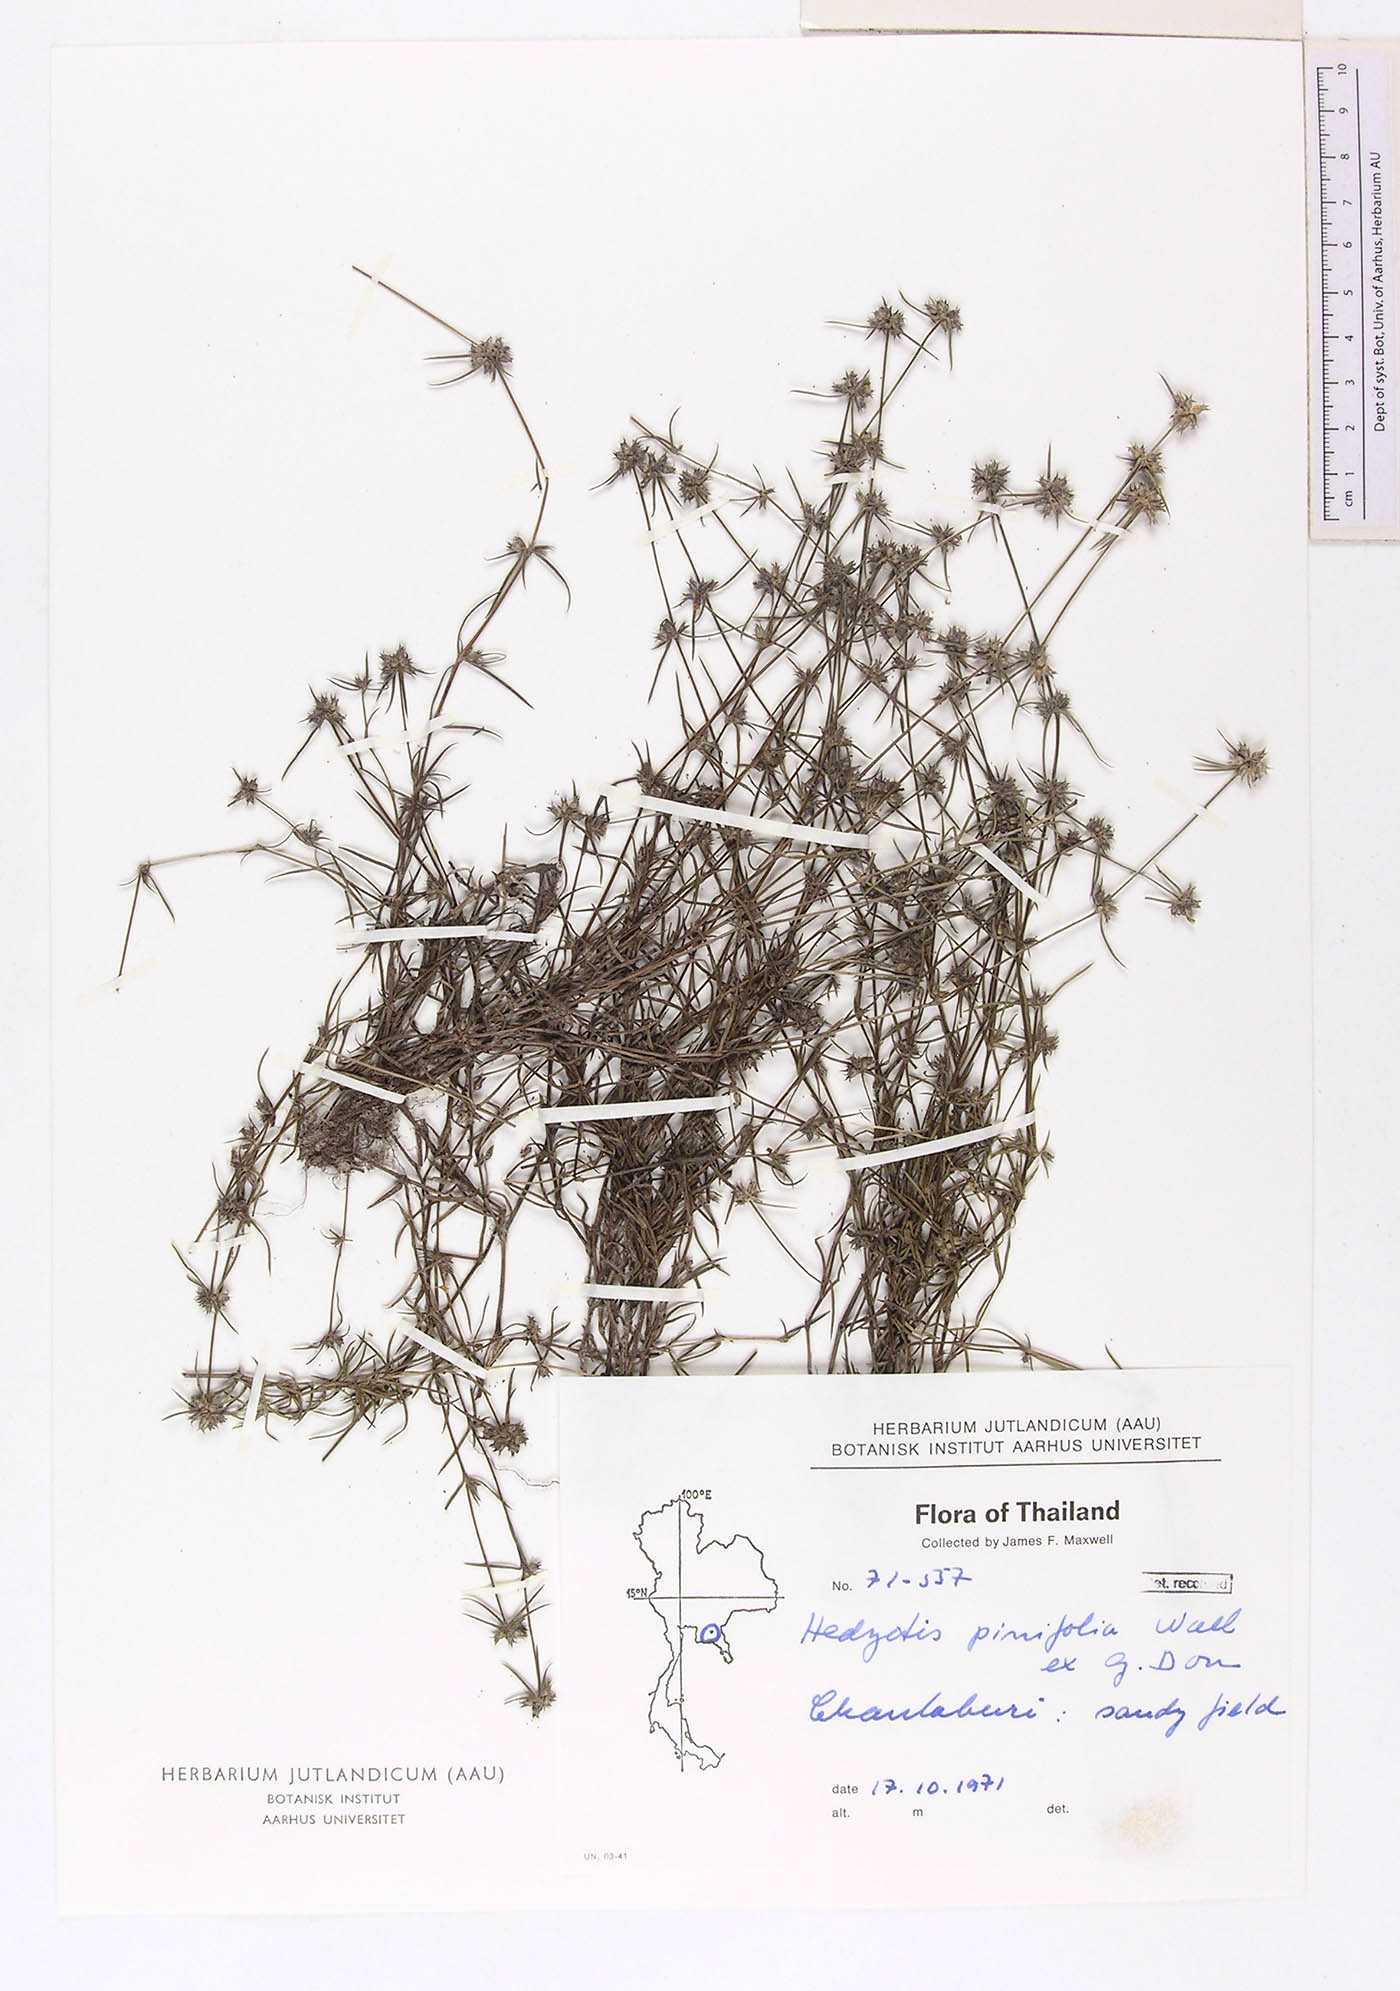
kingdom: Plantae
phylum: Tracheophyta
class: Magnoliopsida
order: Gentianales
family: Rubiaceae
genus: Scleromitrion
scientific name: Scleromitrion pinifolium
